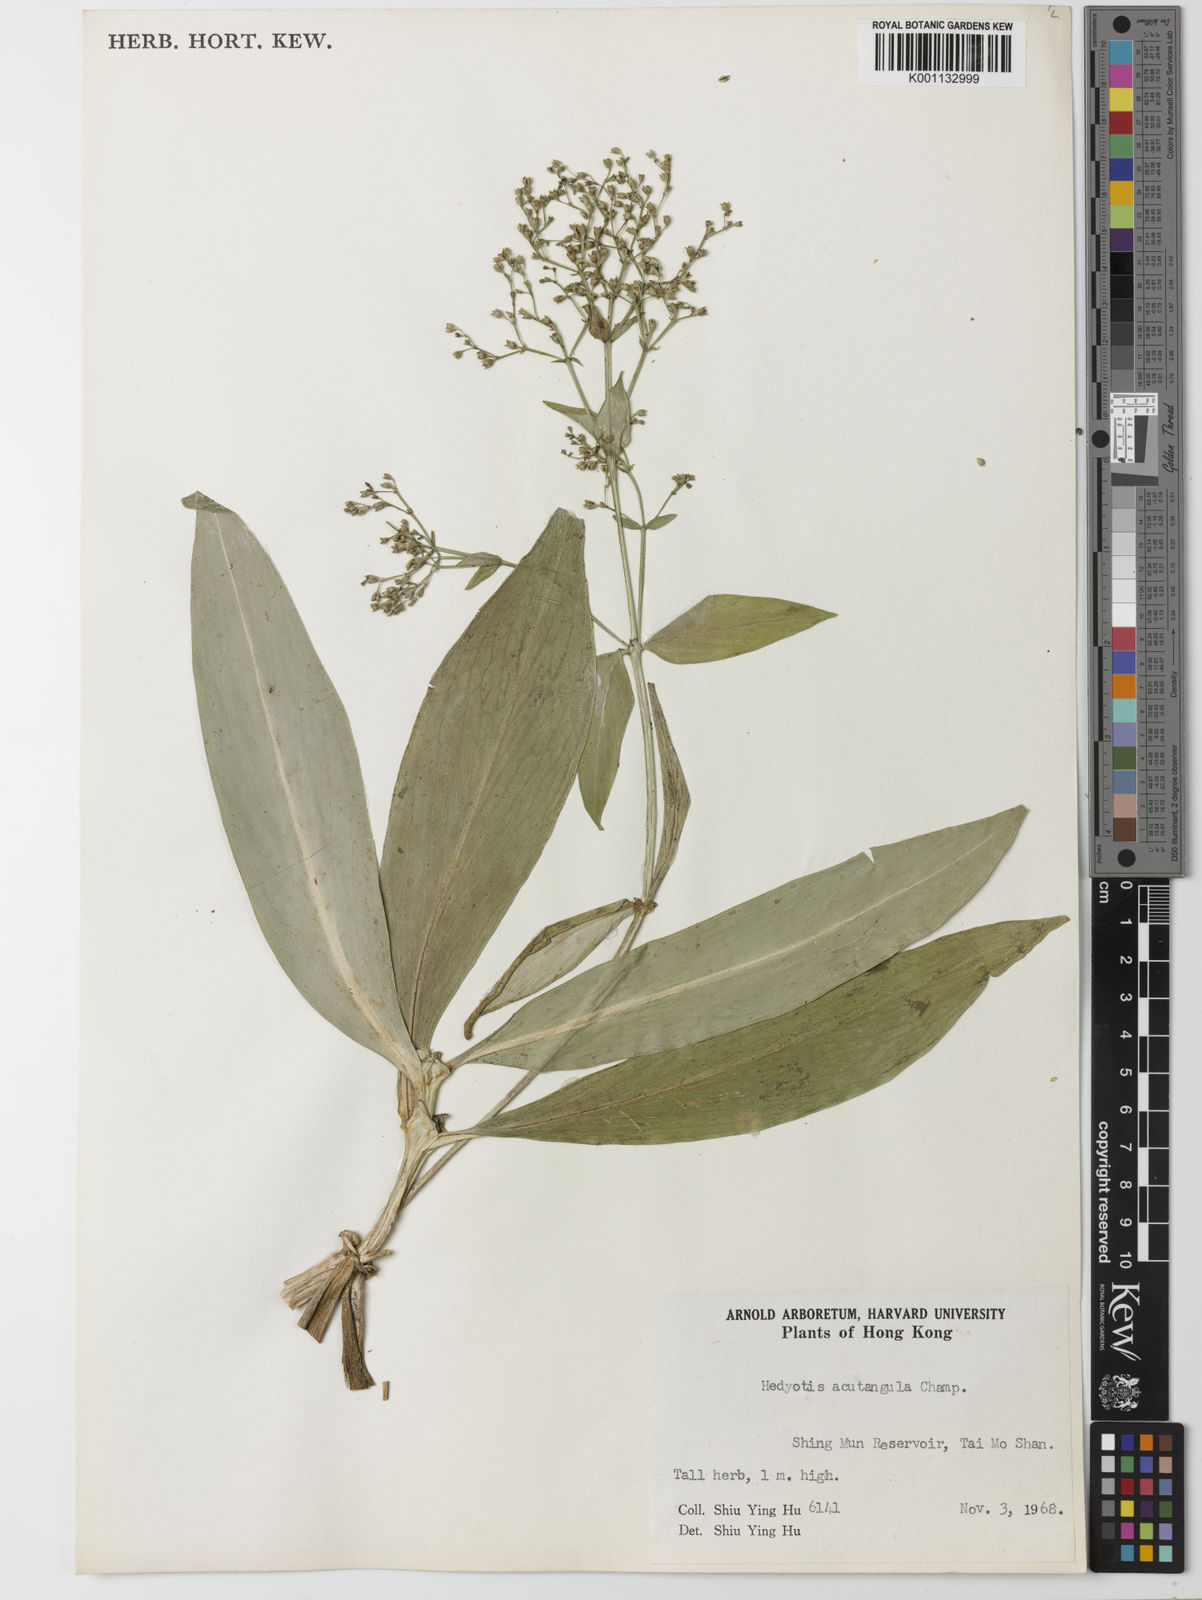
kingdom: Plantae
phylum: Tracheophyta
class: Magnoliopsida
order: Gentianales
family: Rubiaceae
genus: Hedyotis
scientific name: Hedyotis acutangula
